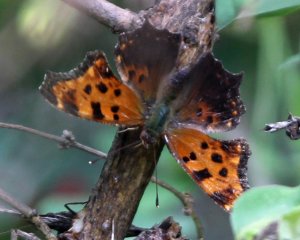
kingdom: Animalia
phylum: Arthropoda
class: Insecta
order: Lepidoptera
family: Nymphalidae
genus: Polygonia
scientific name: Polygonia comma
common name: Eastern Comma
